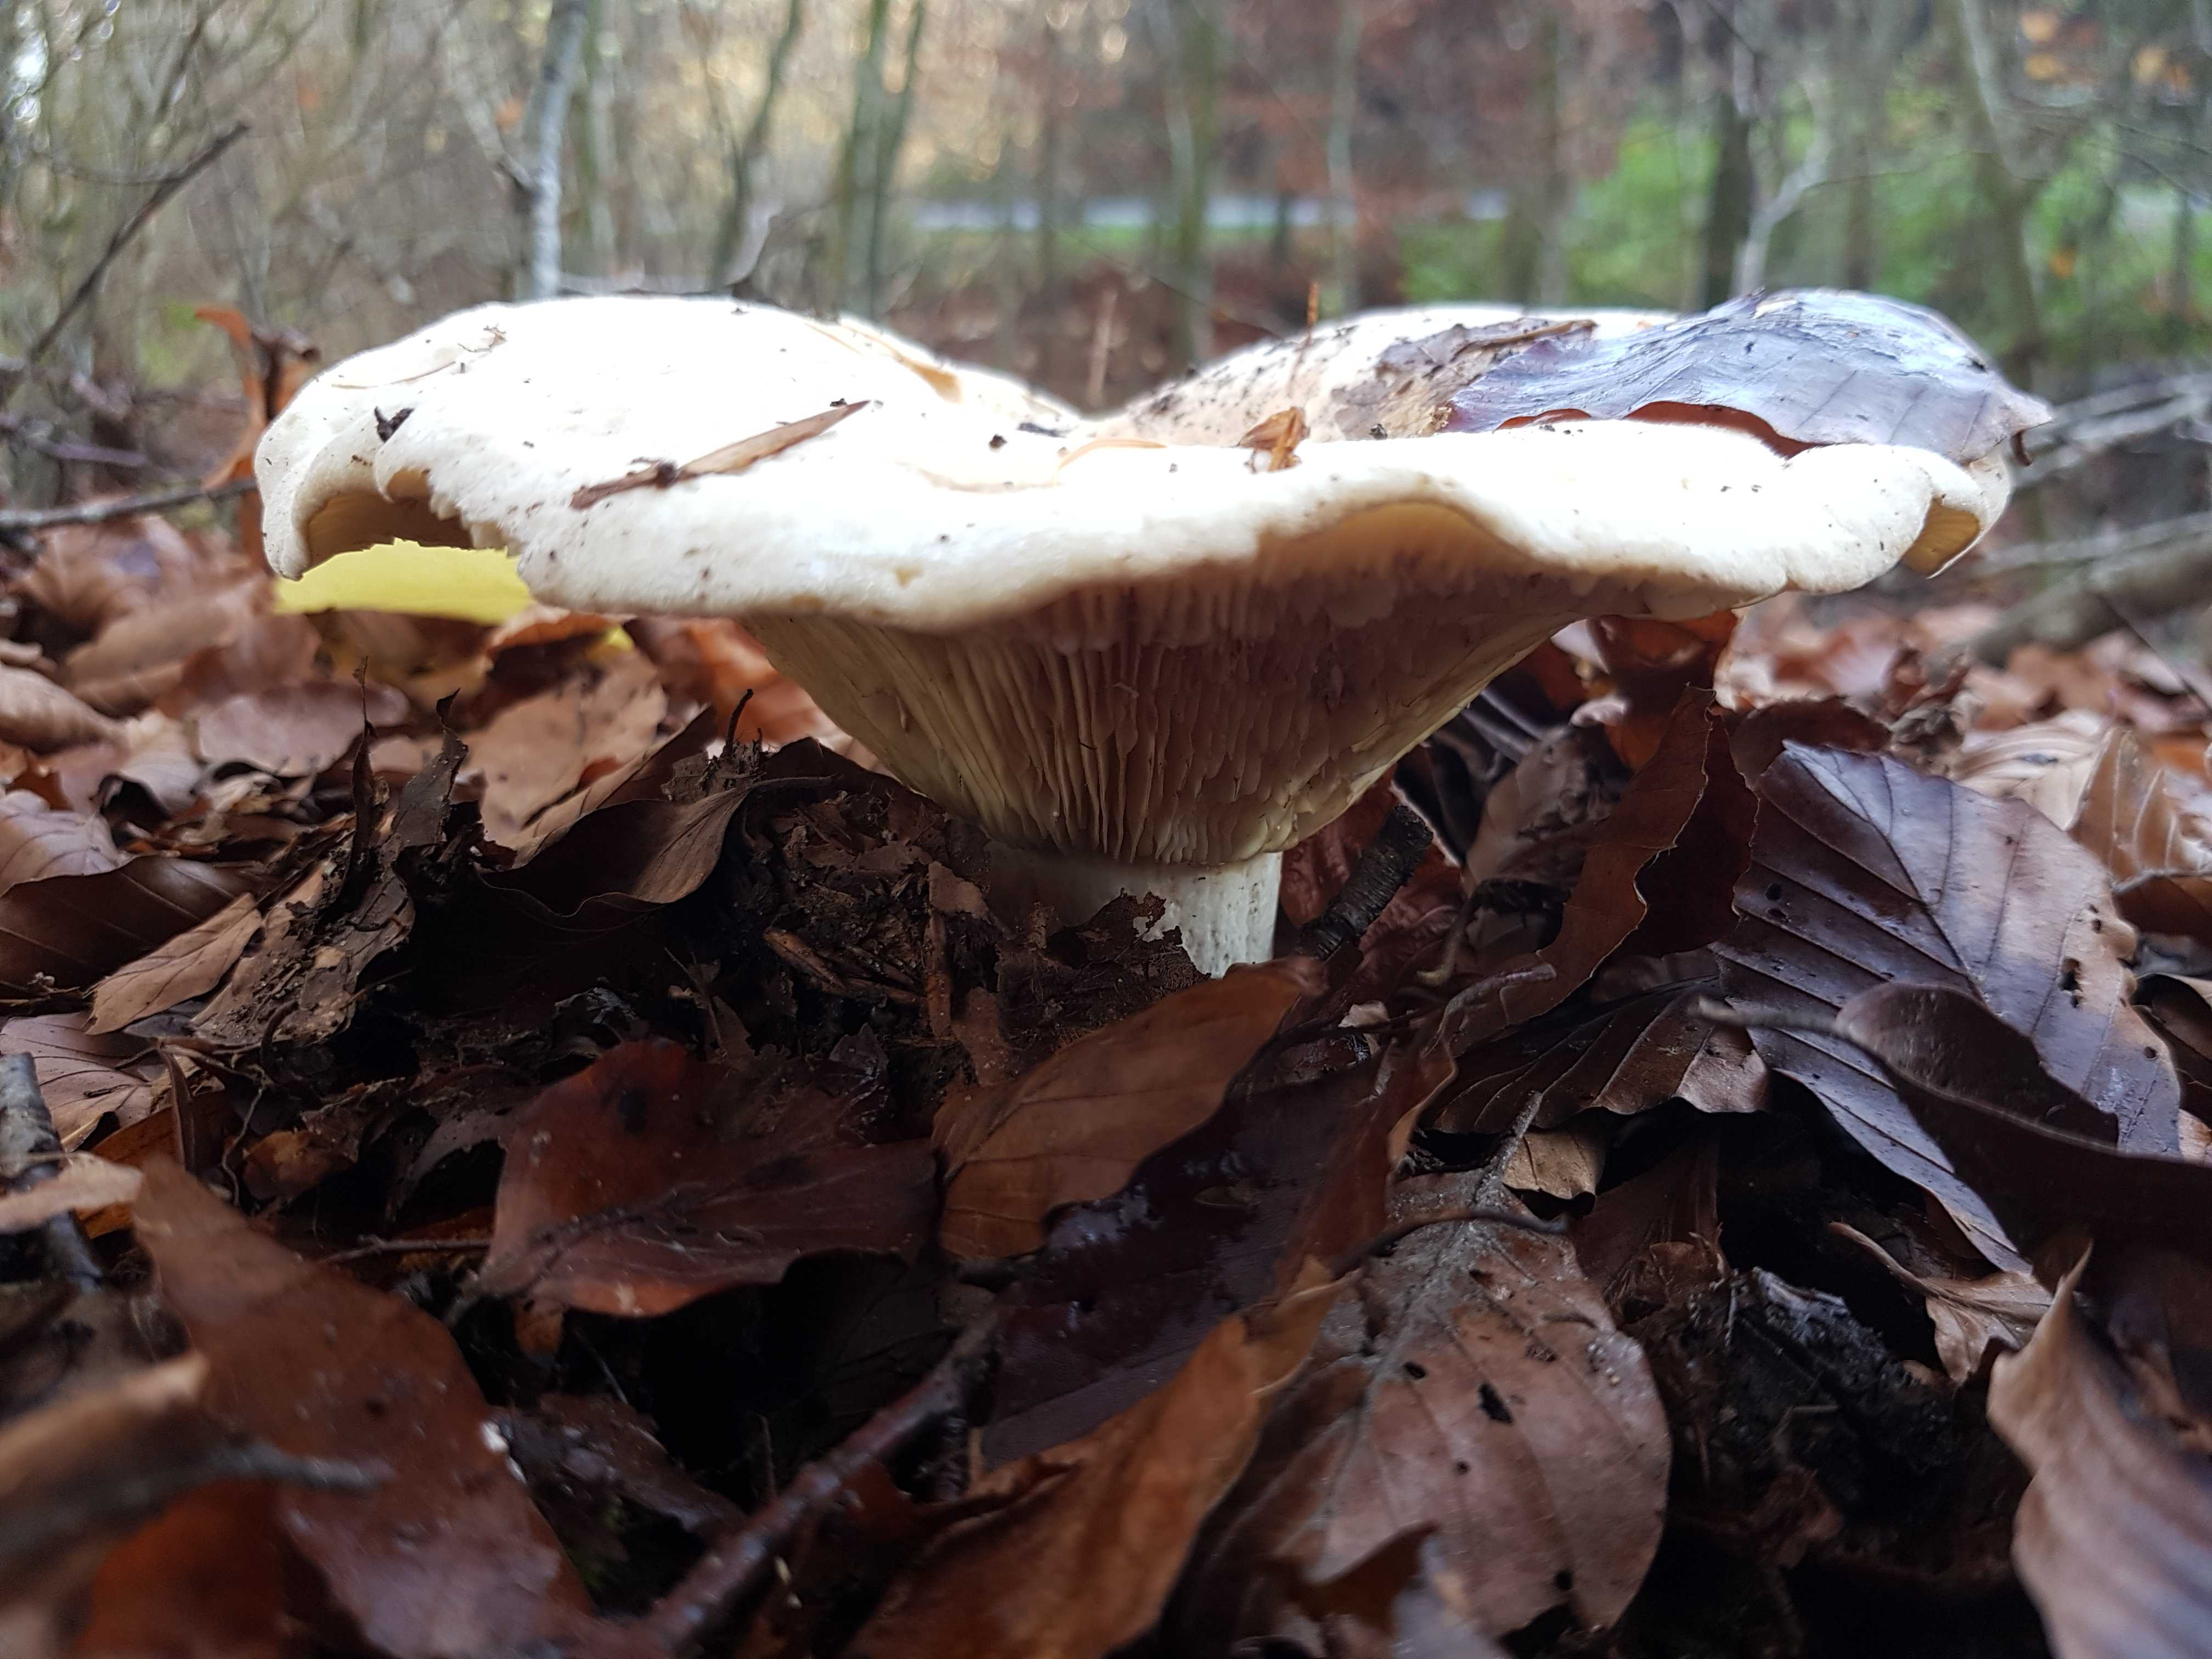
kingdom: Fungi
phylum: Basidiomycota
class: Agaricomycetes
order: Russulales
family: Russulaceae
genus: Lactifluus
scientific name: Lactifluus
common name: mælkehat
